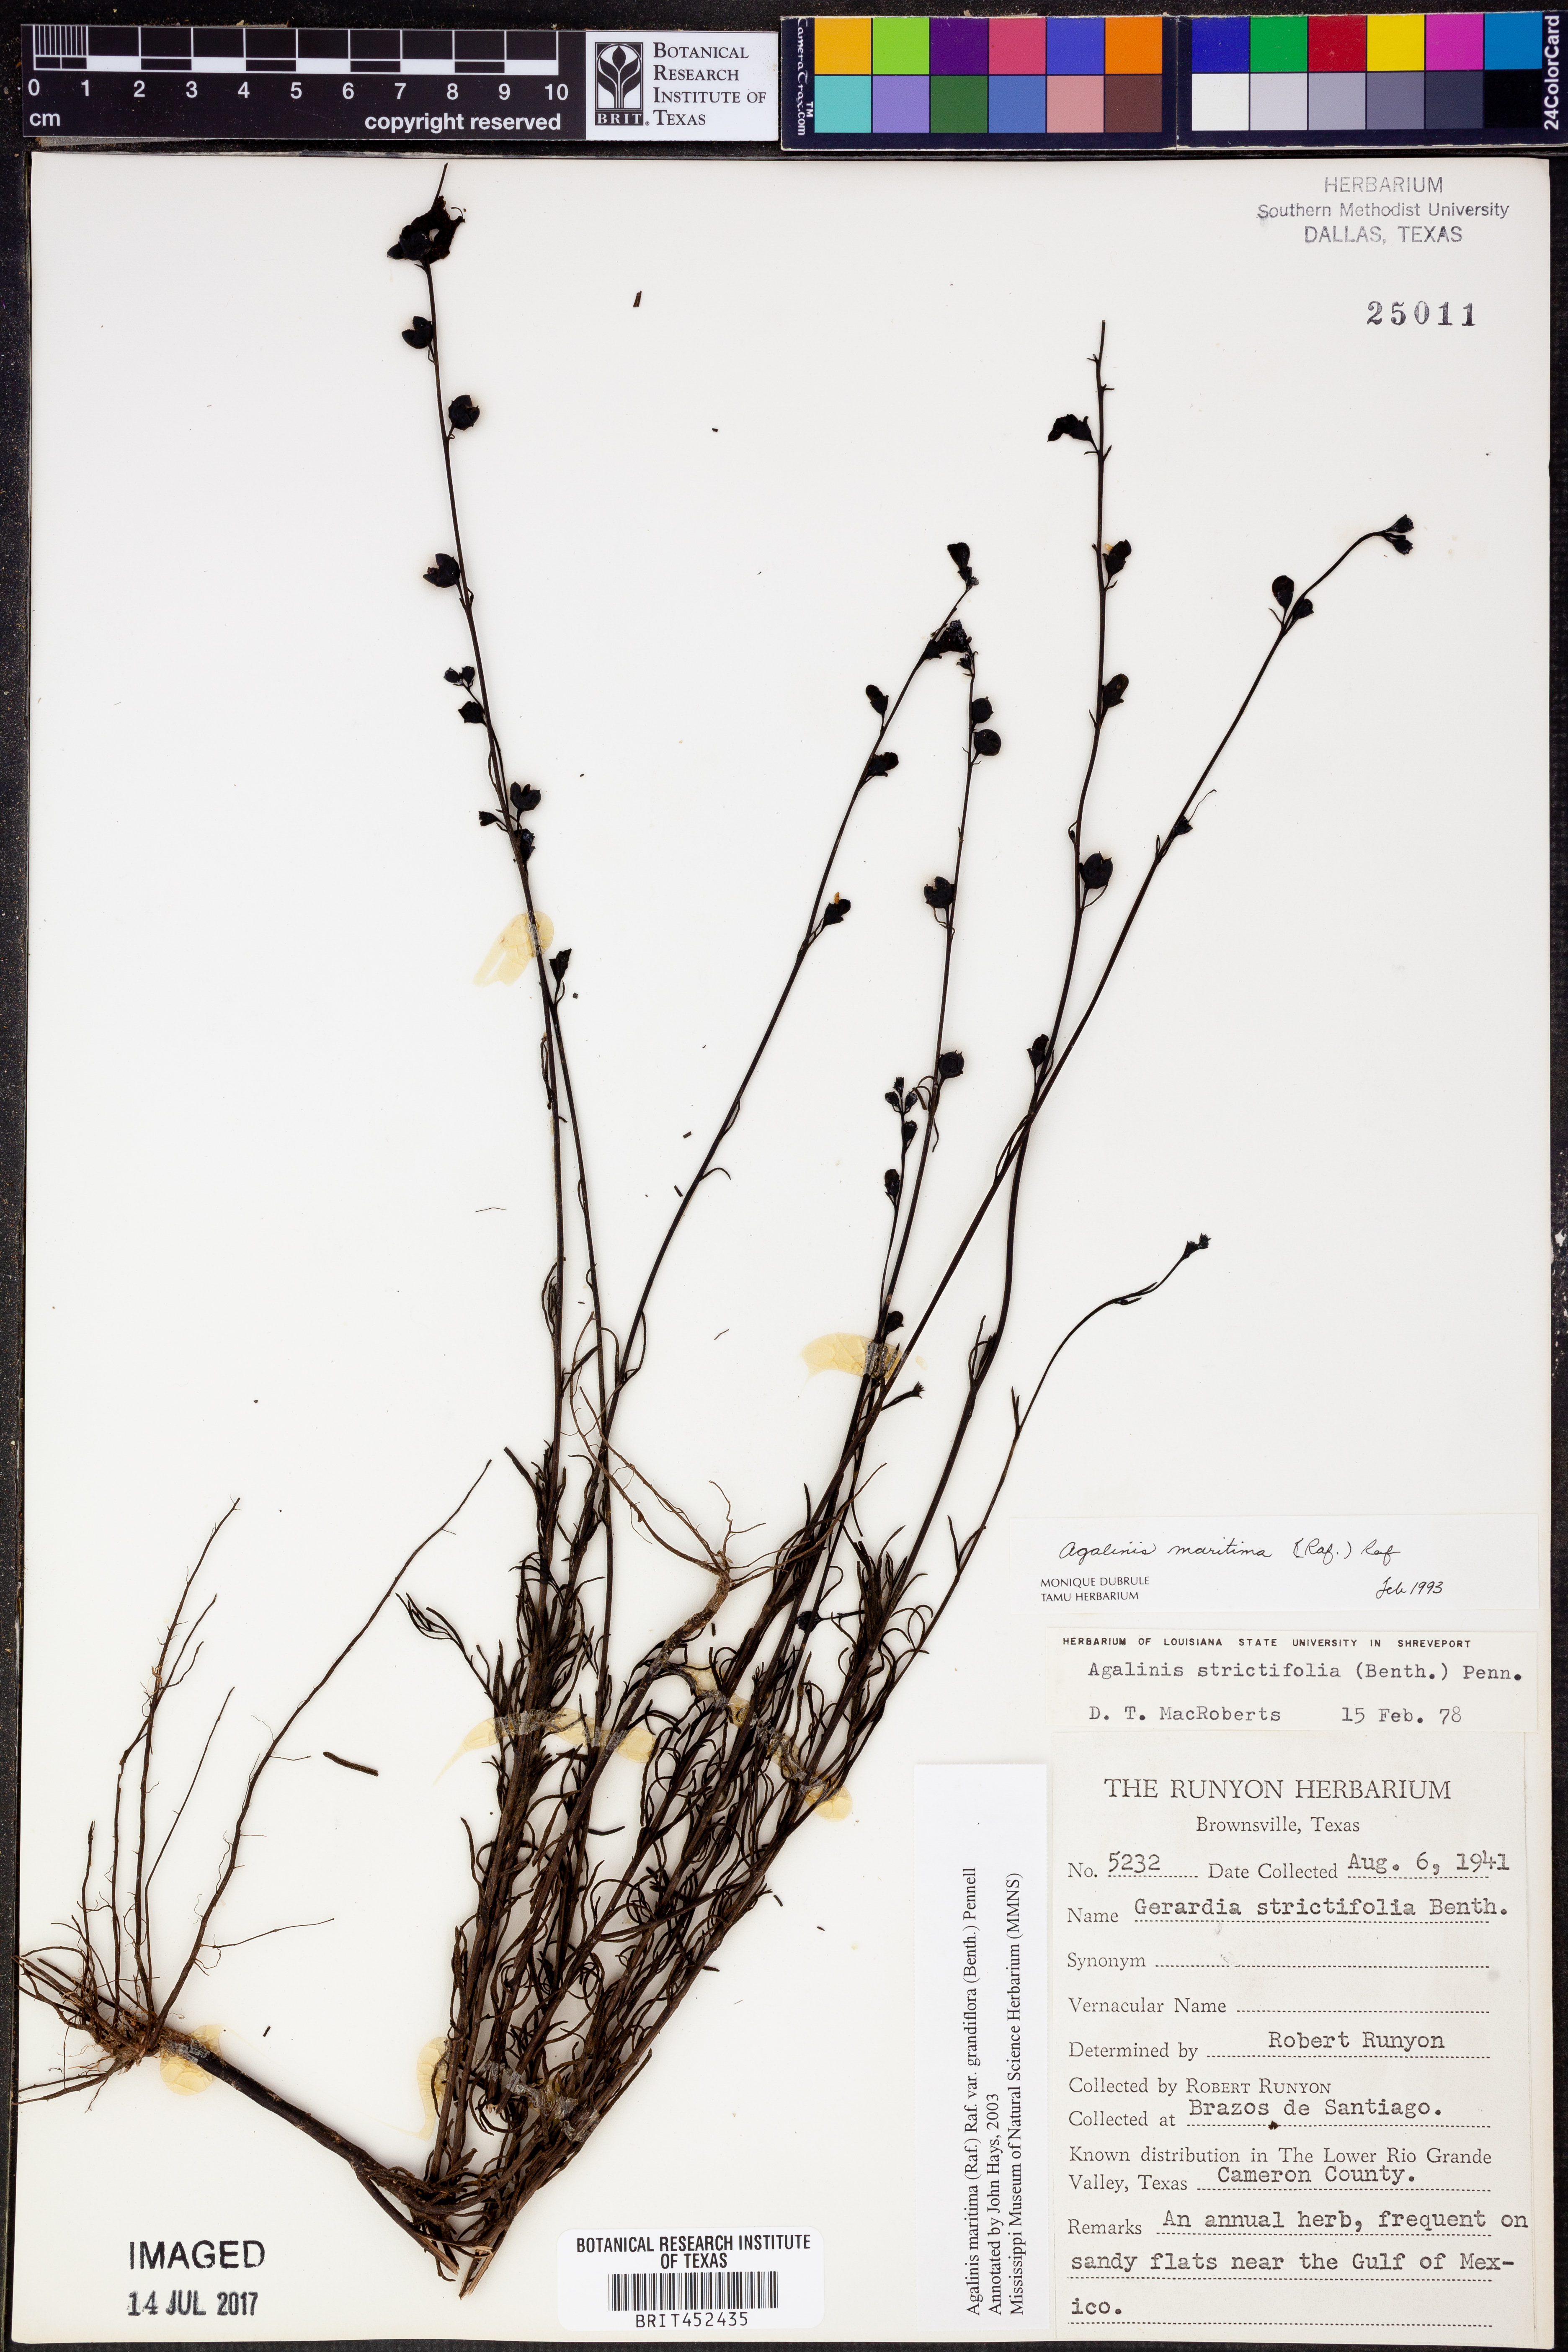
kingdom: Plantae
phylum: Tracheophyta
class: Magnoliopsida
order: Lamiales
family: Orobanchaceae
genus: Agalinis
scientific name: Agalinis harperi
